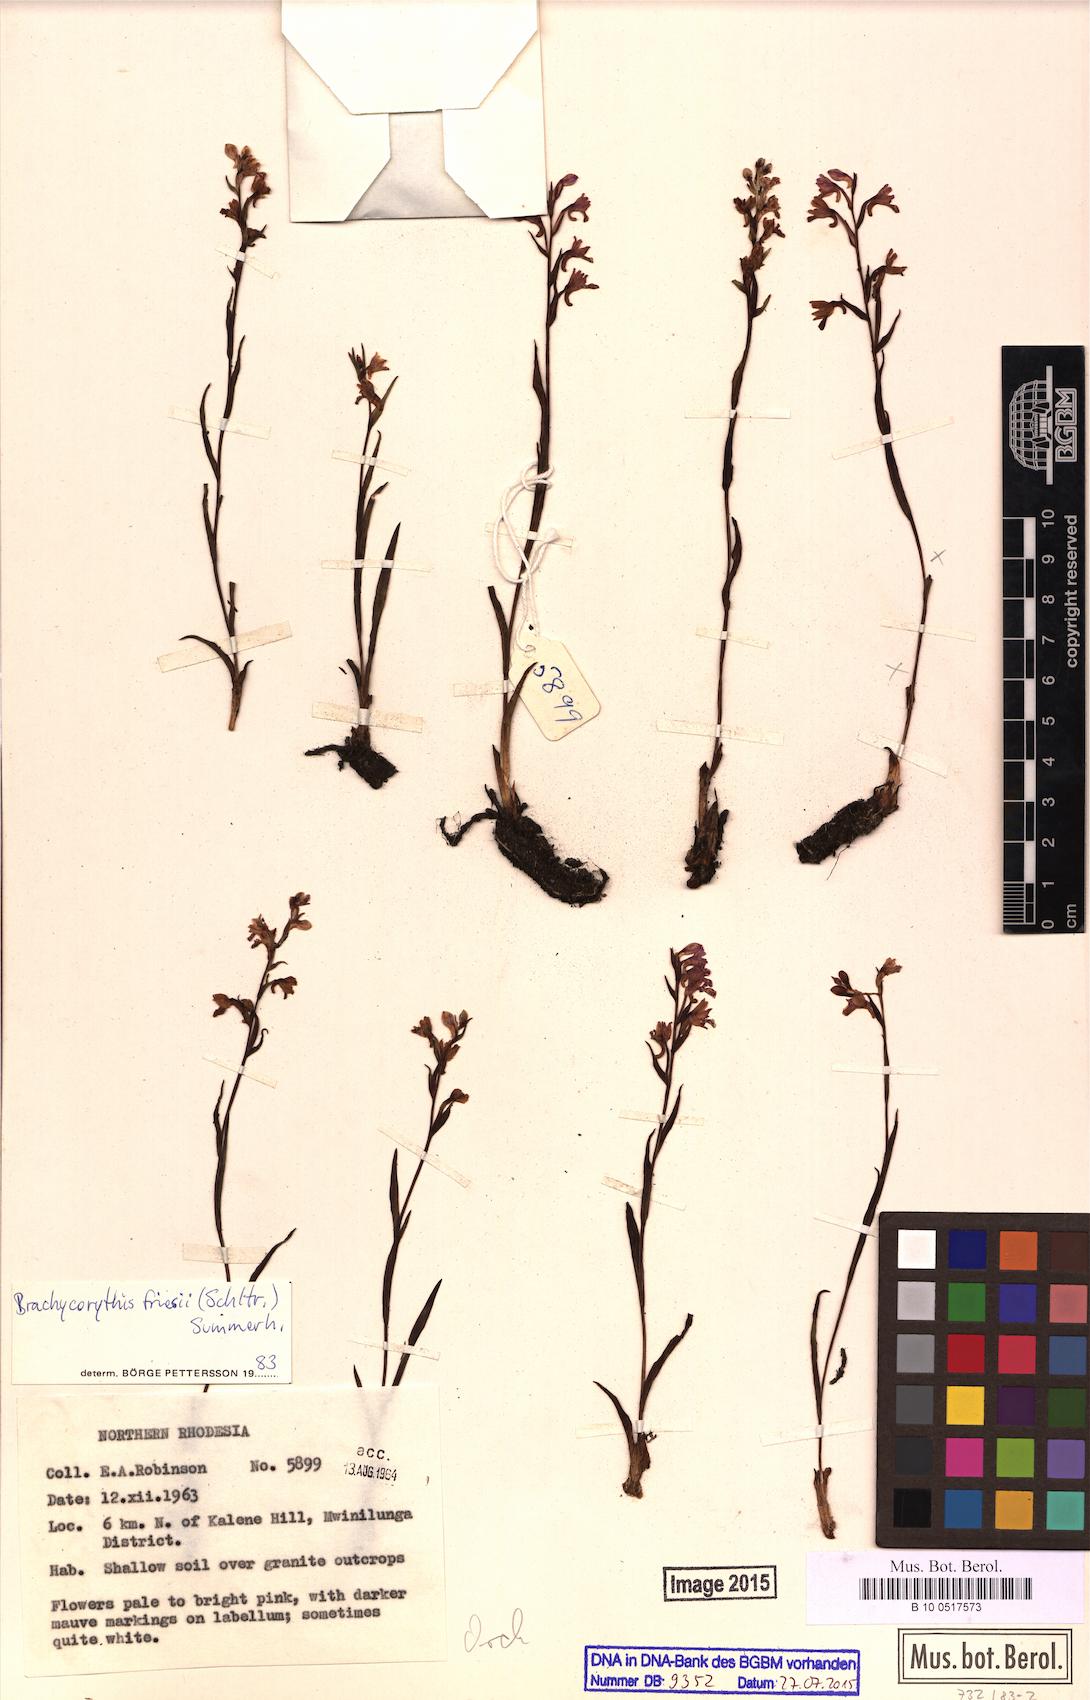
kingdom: Plantae
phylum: Tracheophyta
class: Liliopsida
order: Asparagales
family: Orchidaceae
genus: Brachycorythis
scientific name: Brachycorythis friesii
